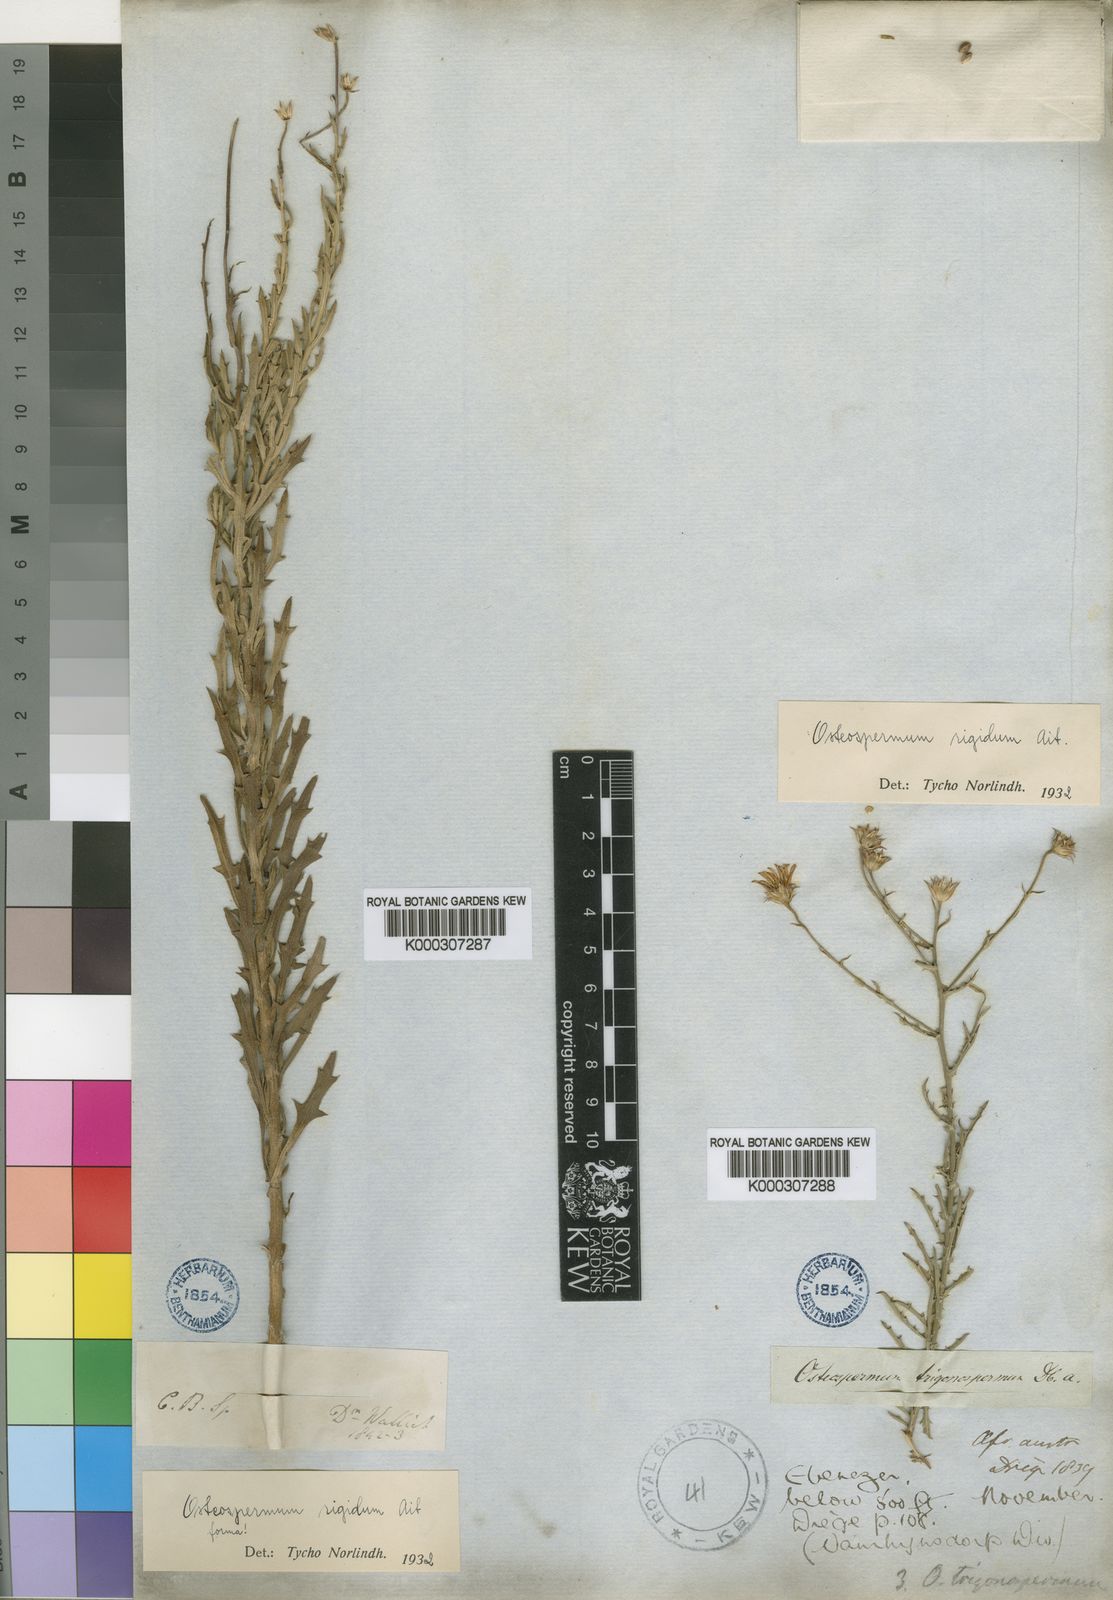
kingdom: Plantae
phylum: Tracheophyta
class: Magnoliopsida
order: Asterales
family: Asteraceae
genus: Osteospermum
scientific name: Osteospermum rigidum
